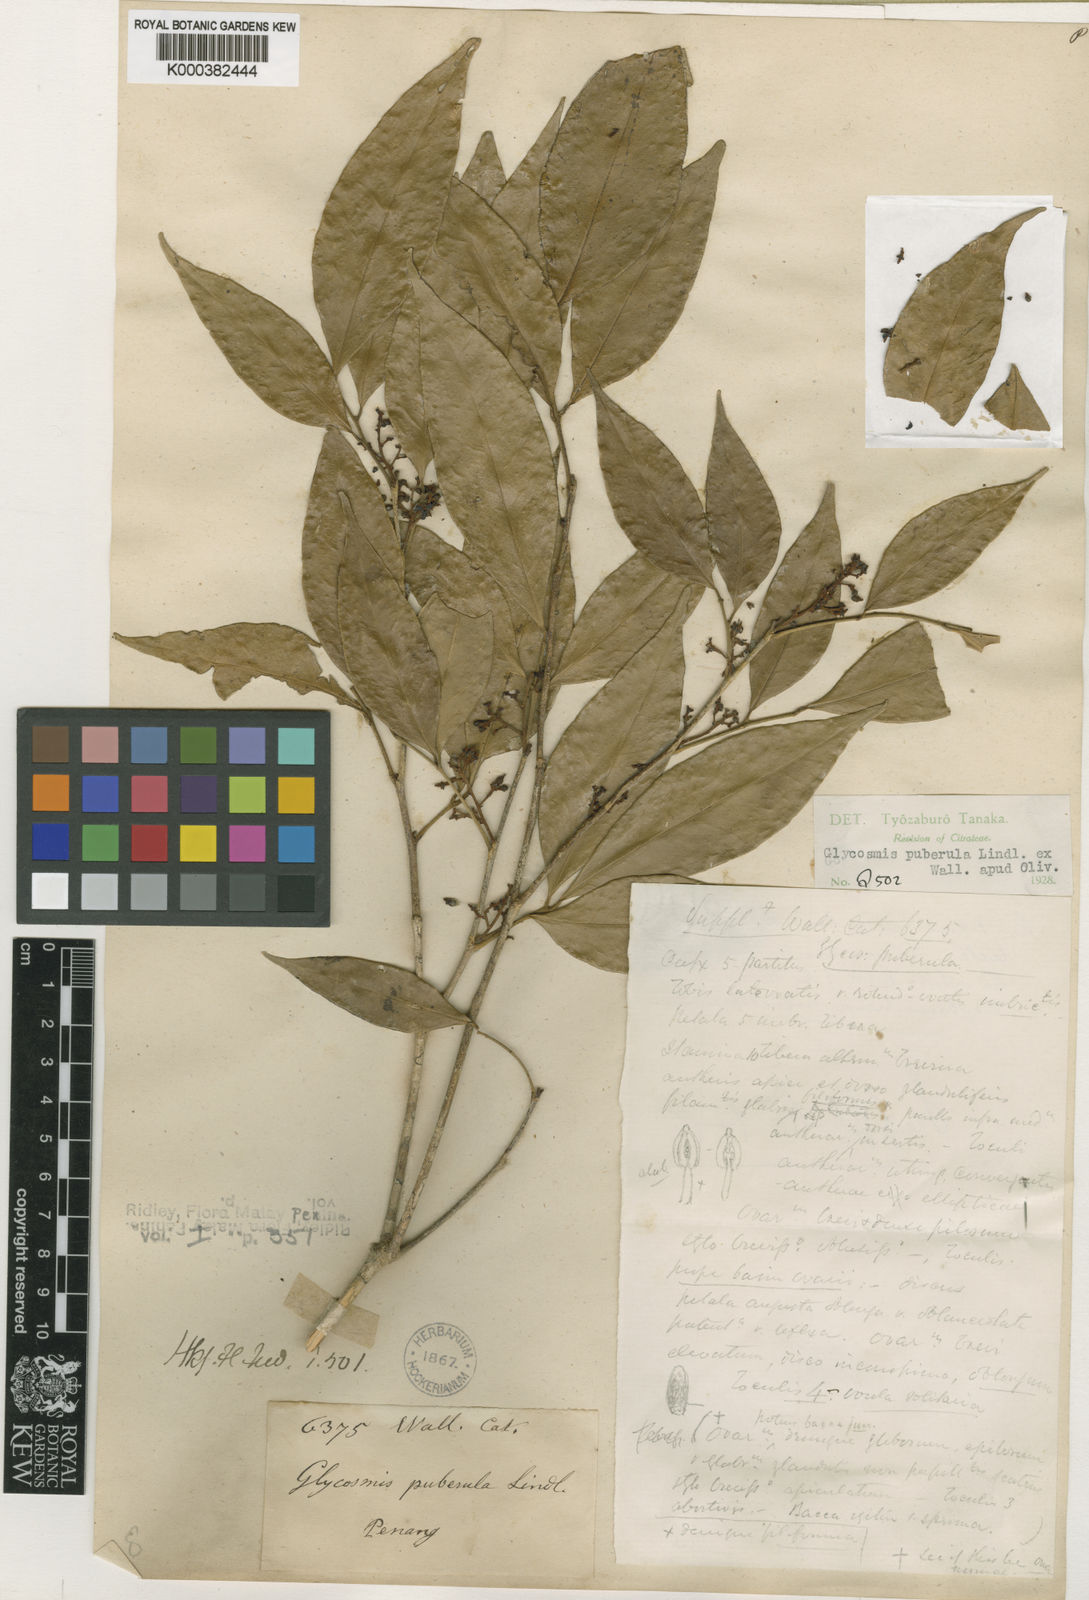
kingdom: Plantae
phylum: Tracheophyta
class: Magnoliopsida
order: Sapindales
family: Rutaceae
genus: Glycosmis
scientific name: Glycosmis
